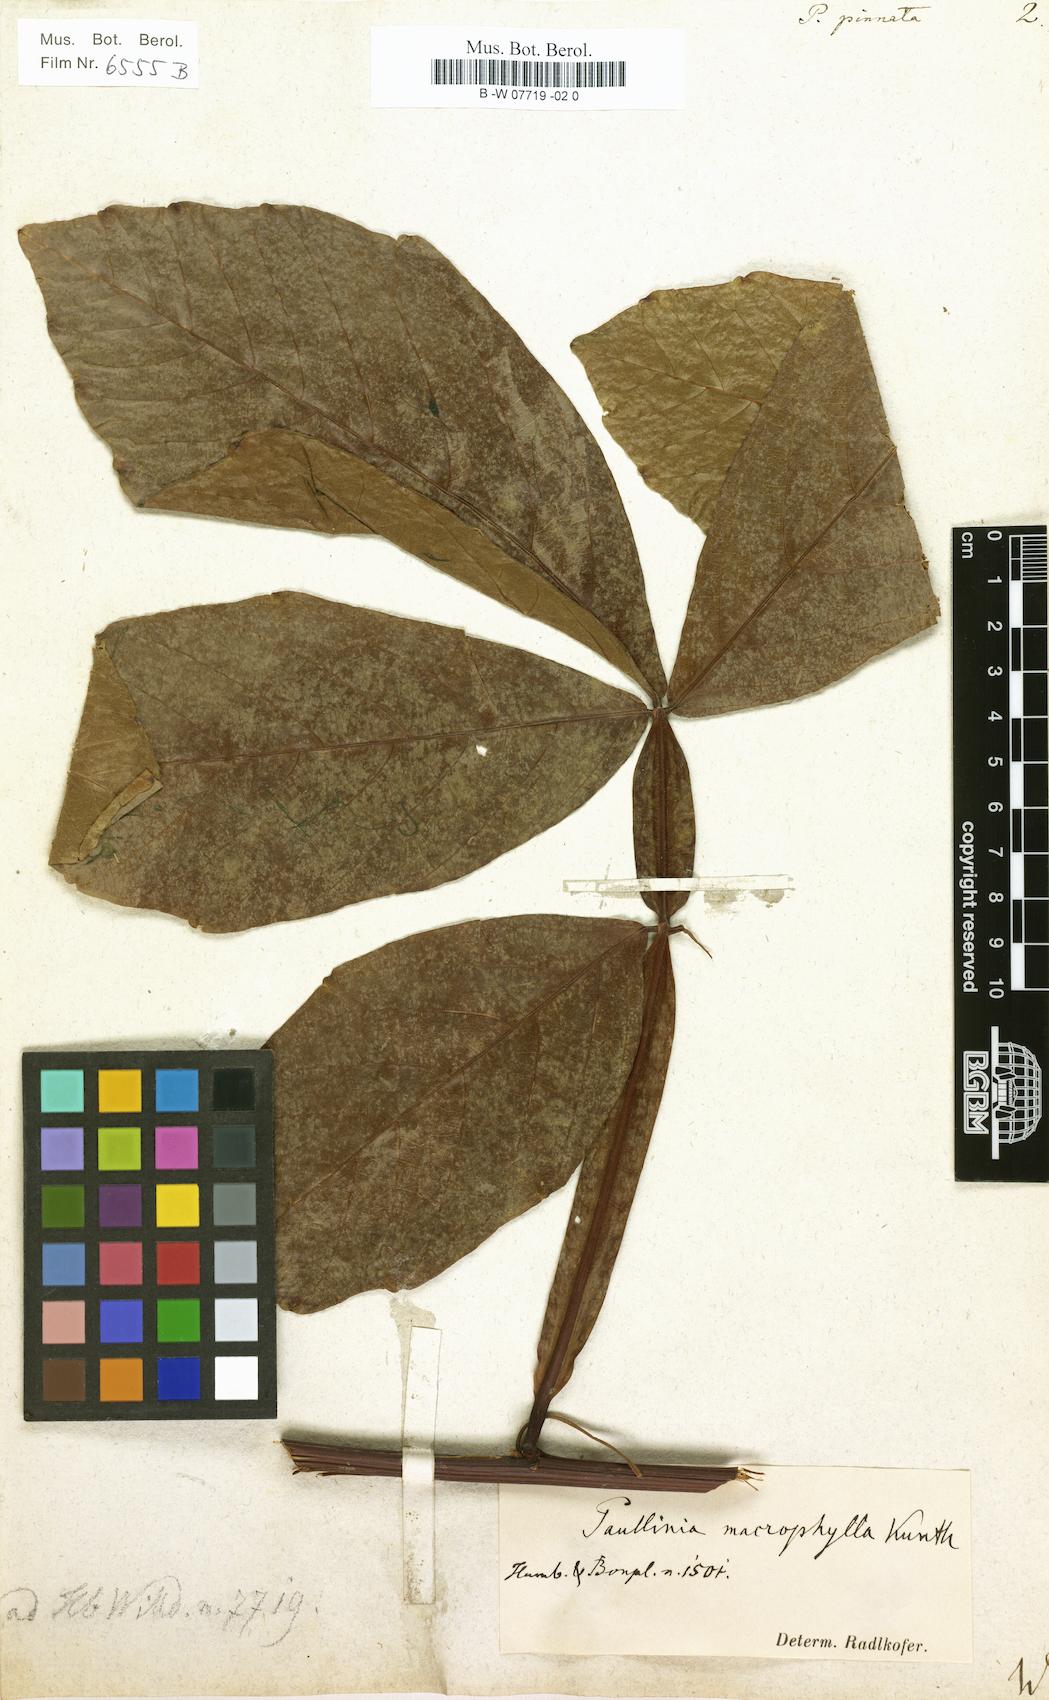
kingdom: Plantae
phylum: Tracheophyta
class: Magnoliopsida
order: Sapindales
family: Sapindaceae
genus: Paullinia
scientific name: Paullinia pinnata
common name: Barbasco
